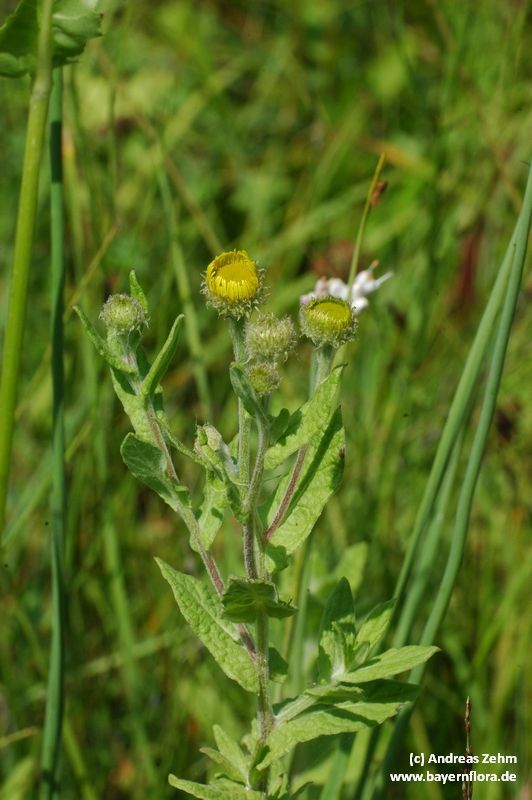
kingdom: Plantae
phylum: Tracheophyta
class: Magnoliopsida
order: Asterales
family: Asteraceae
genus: Pulicaria
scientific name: Pulicaria dysenterica
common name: Common fleabane
